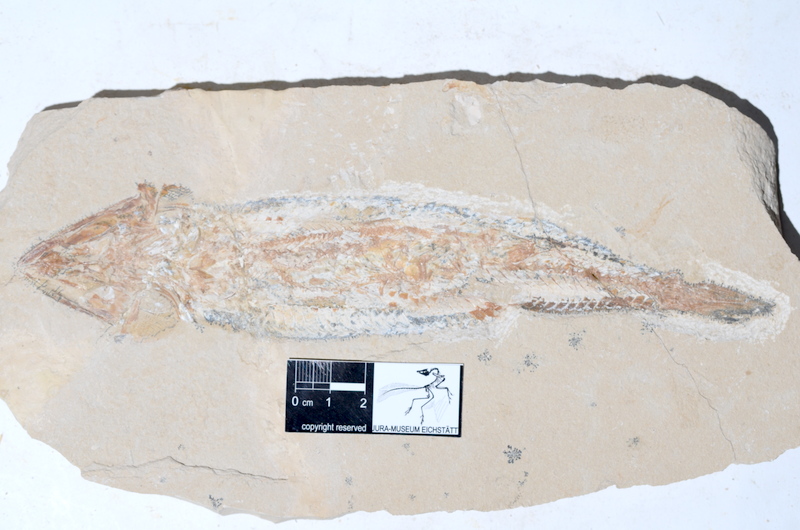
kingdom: Animalia
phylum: Chordata
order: Aulopiformes
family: Aspidopleuridae
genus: Aspidopleurus
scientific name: Aspidopleurus cataphractus
